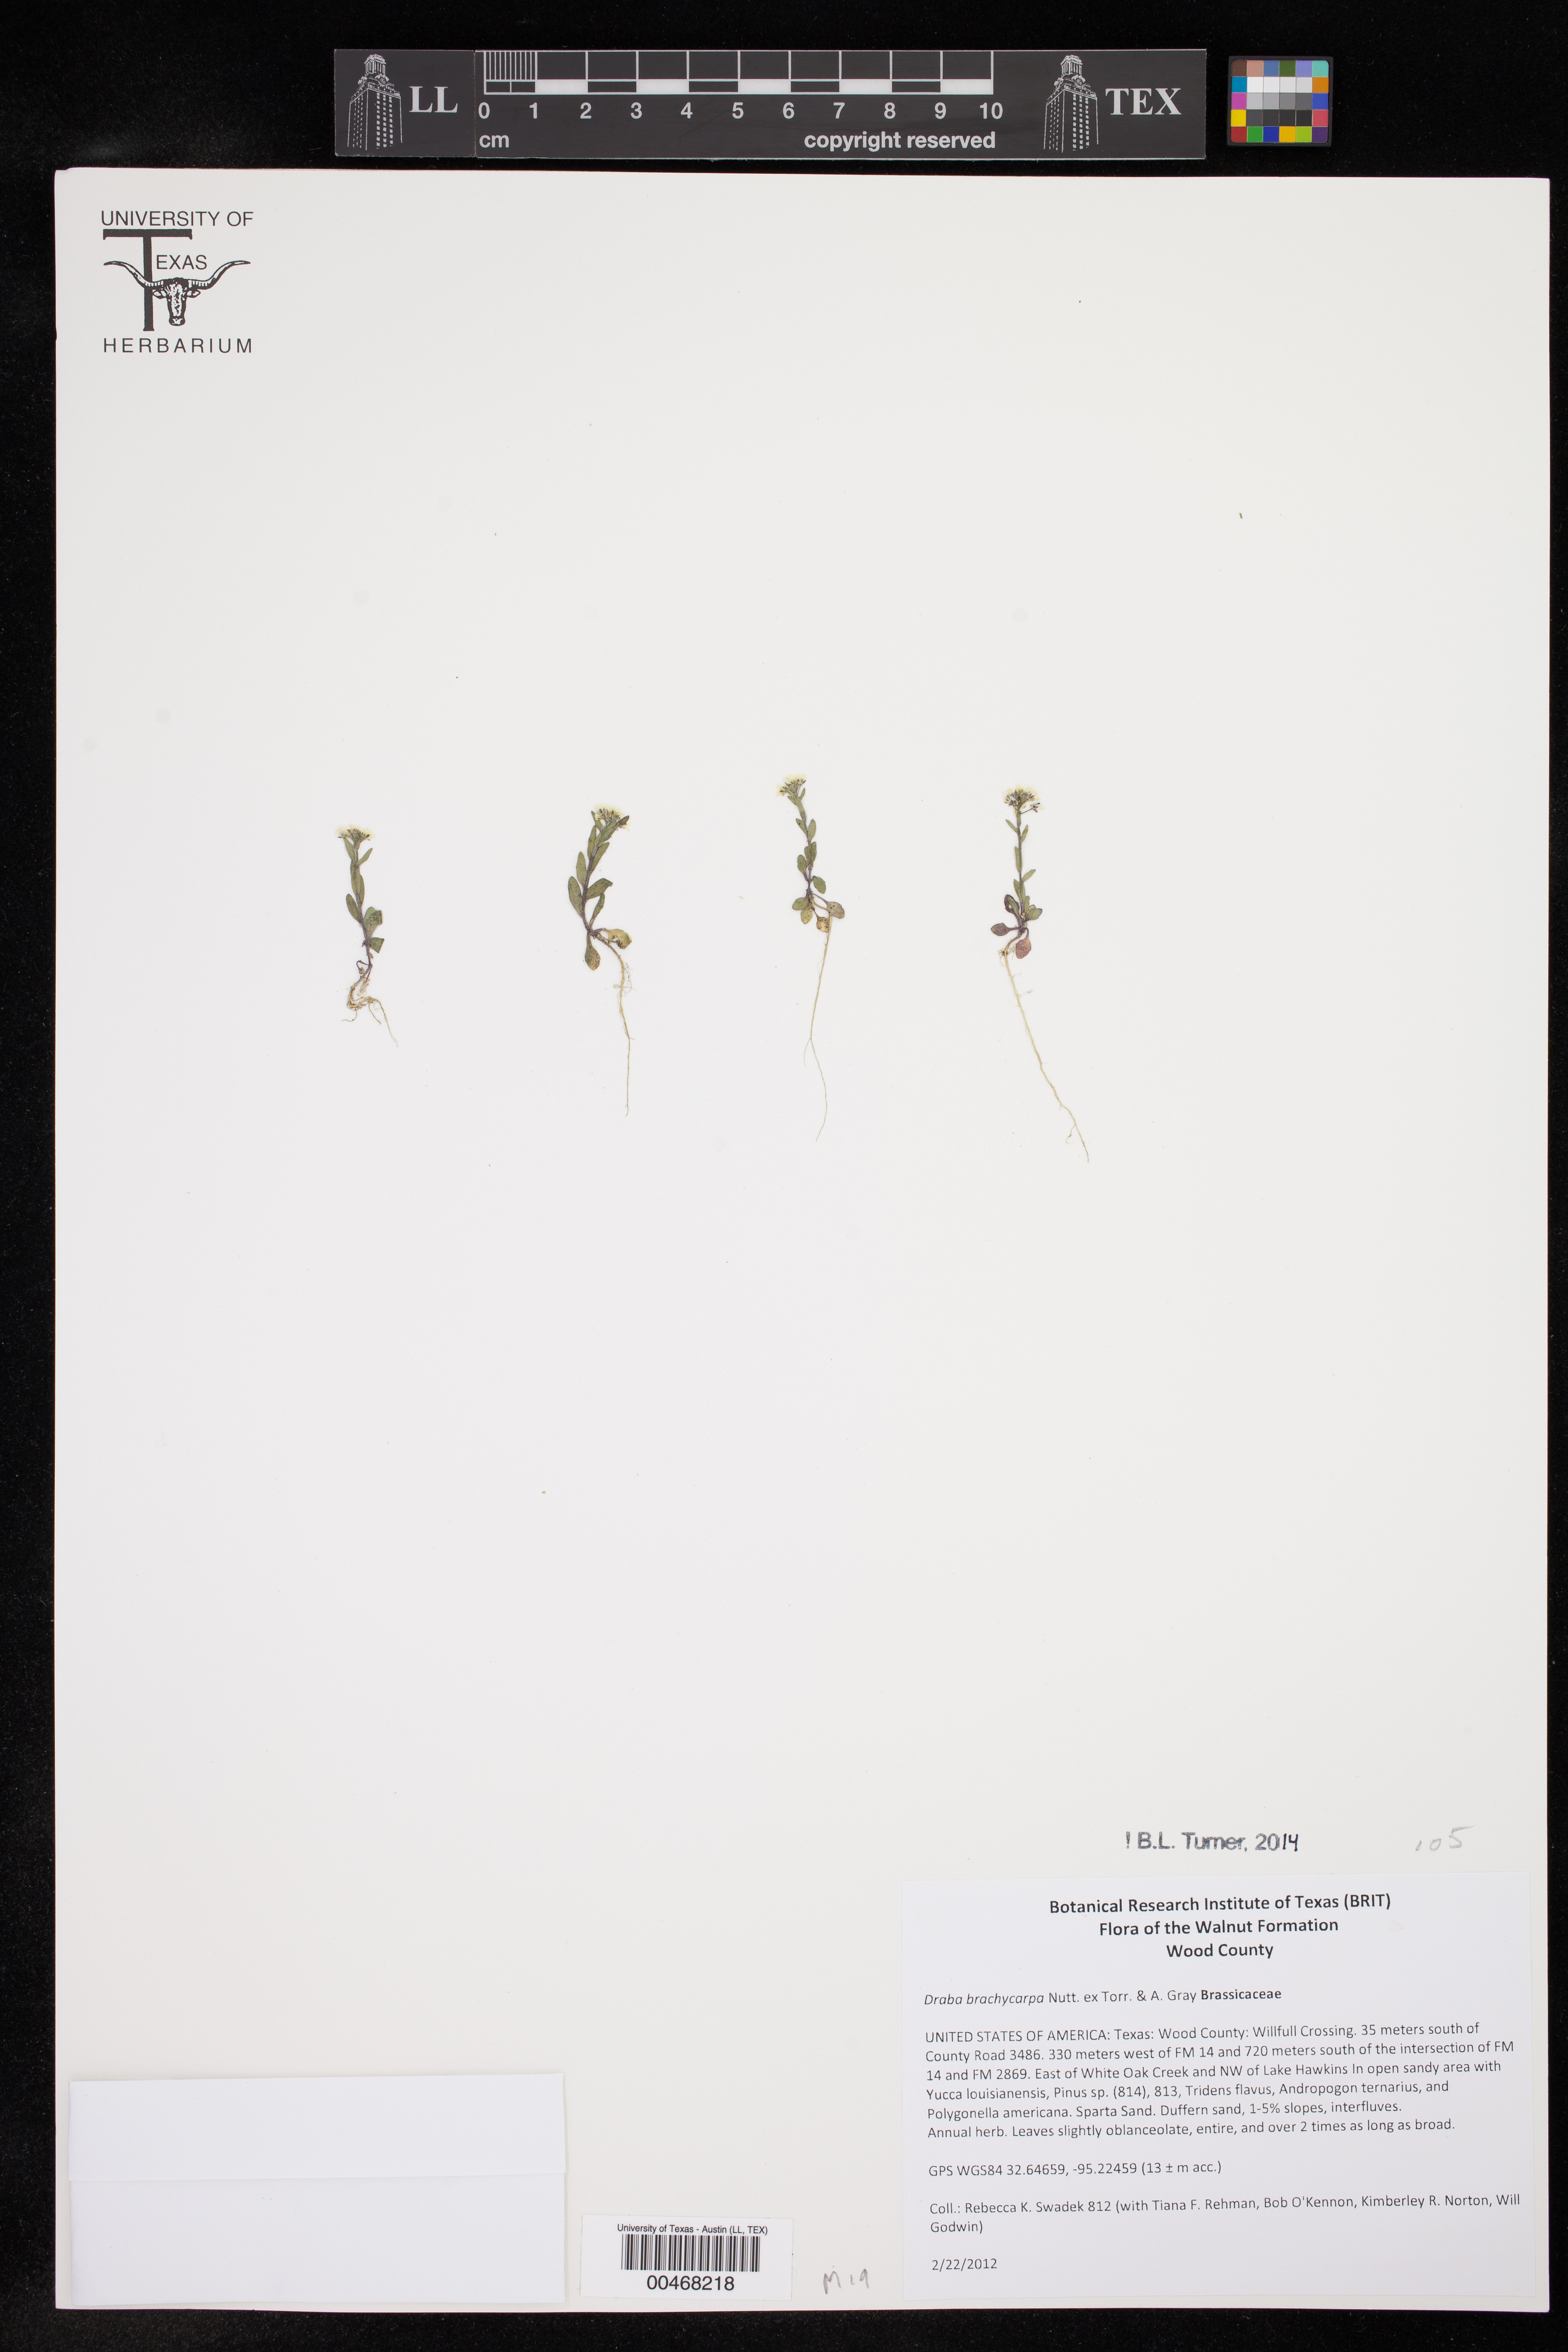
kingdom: Plantae
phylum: Tracheophyta
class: Magnoliopsida
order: Brassicales
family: Brassicaceae
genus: Draba
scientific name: Draba brachycarpa
